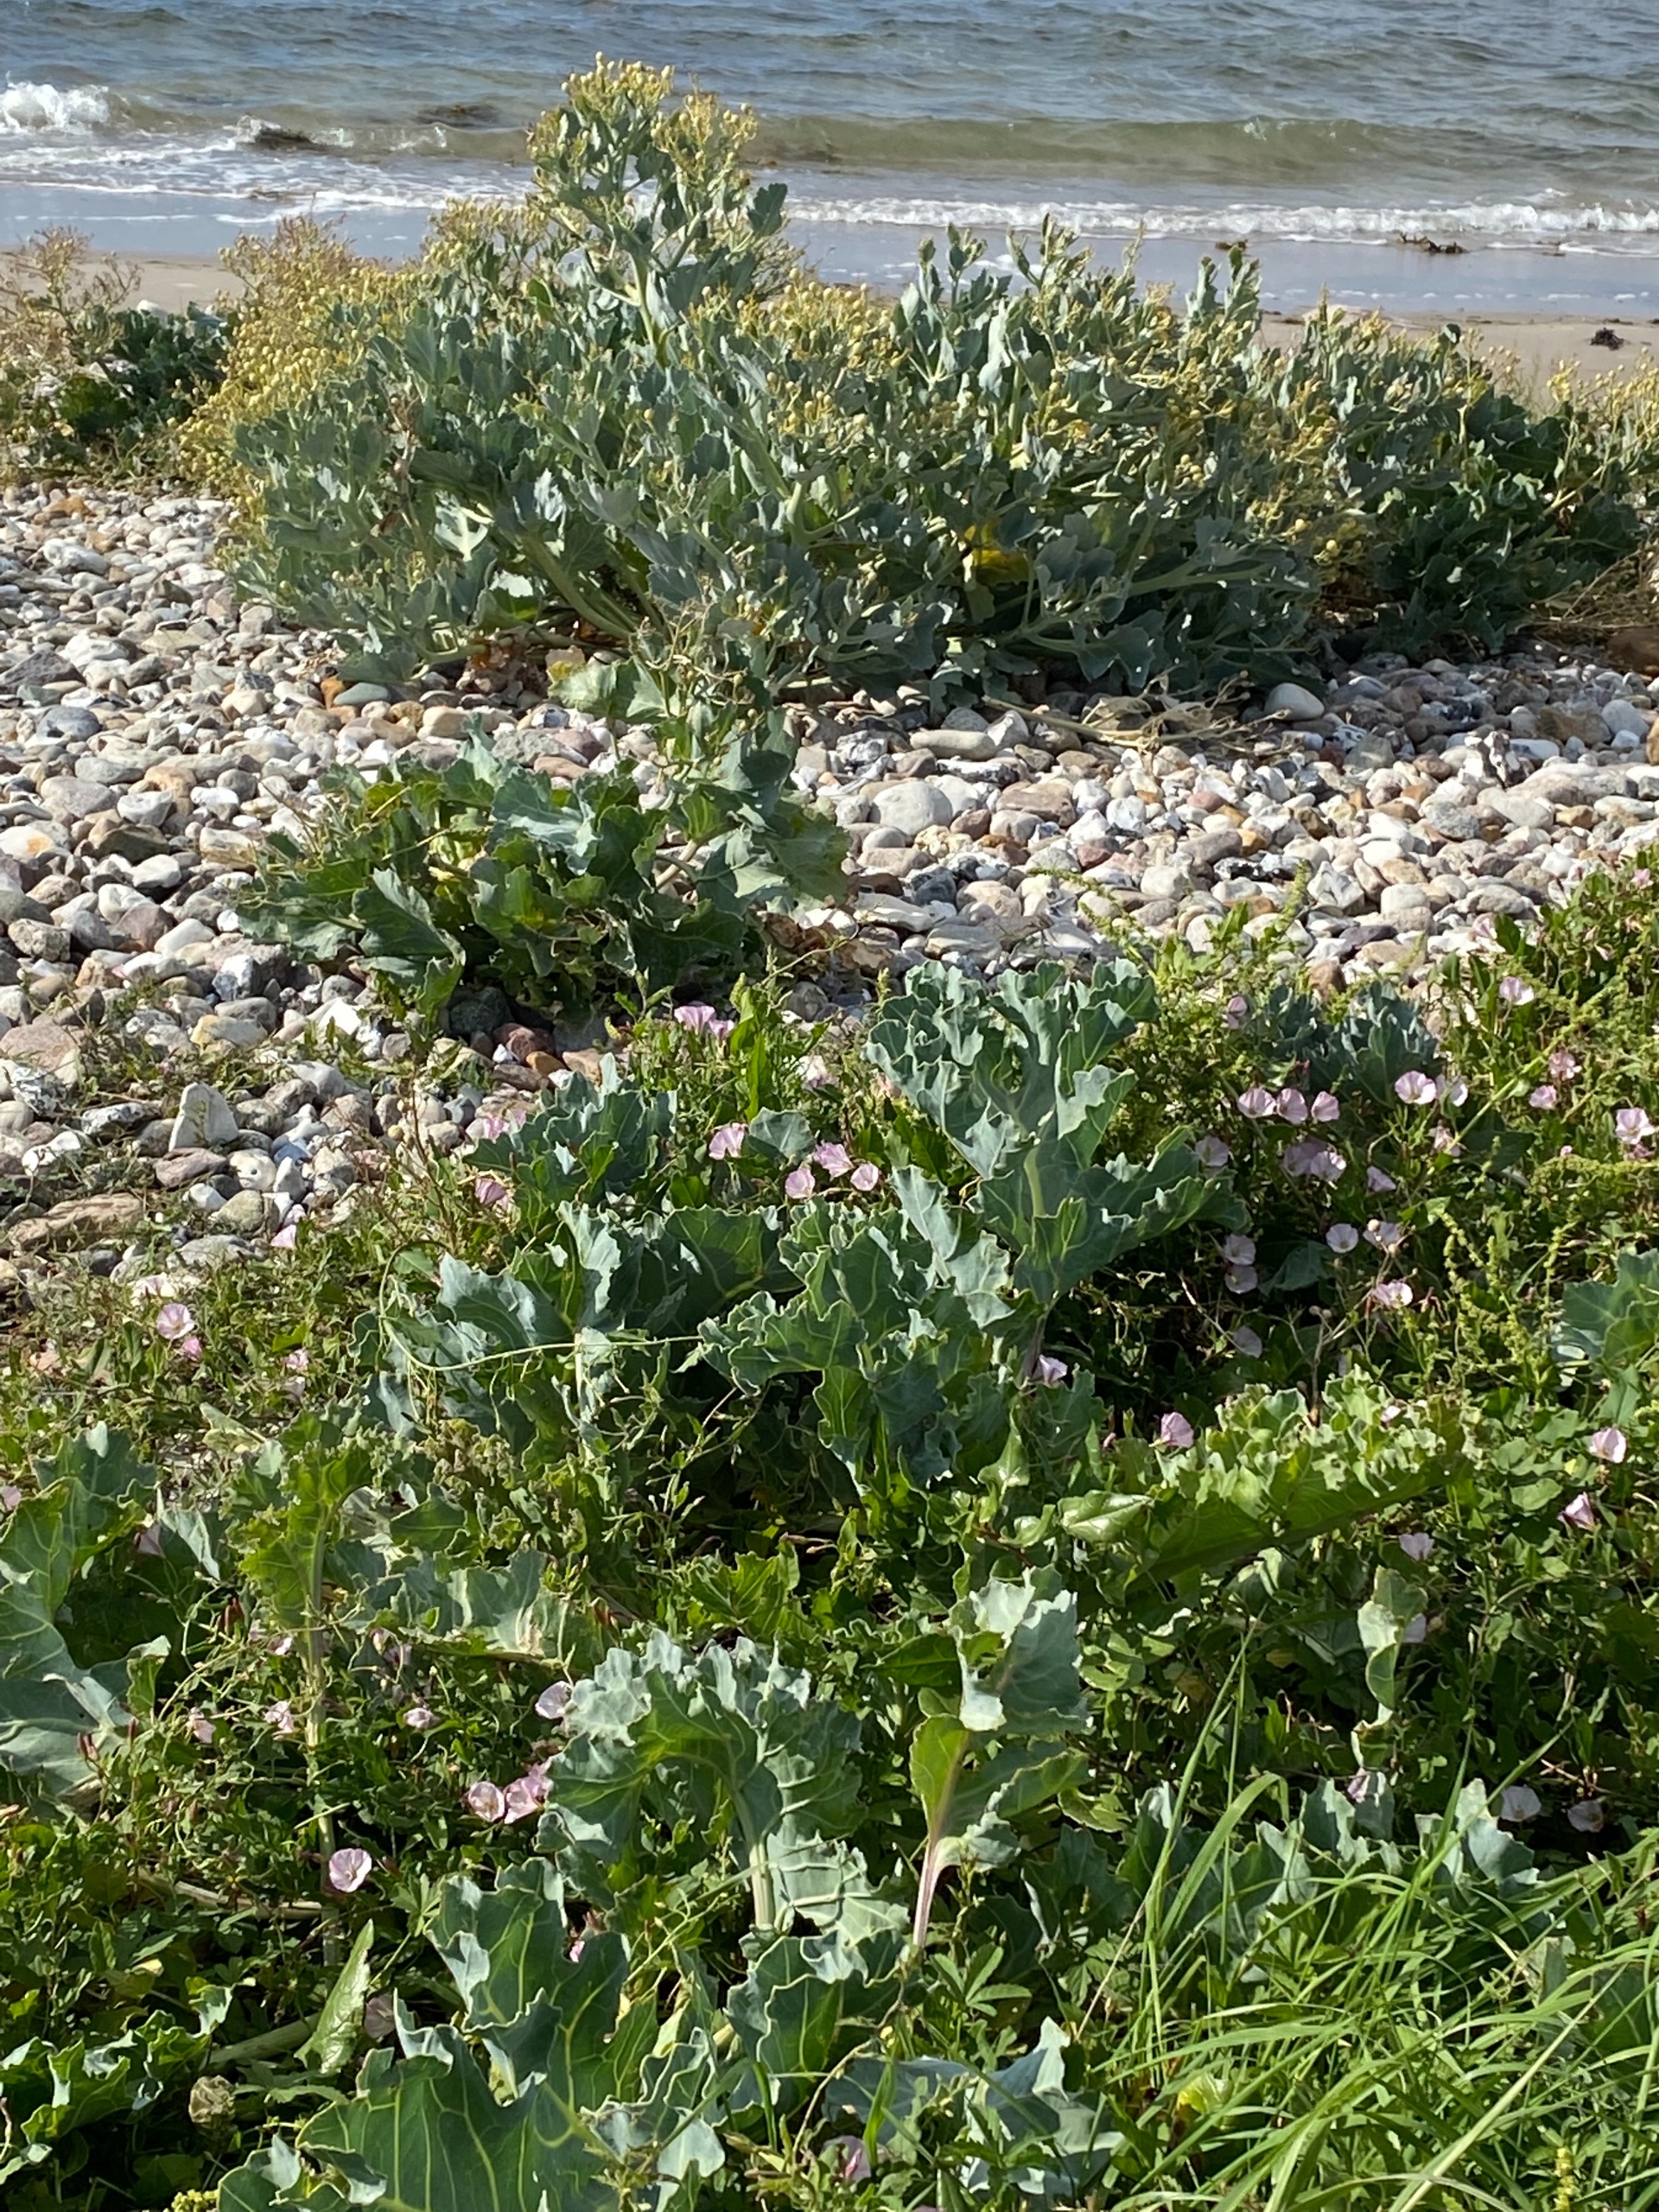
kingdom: Plantae
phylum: Tracheophyta
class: Magnoliopsida
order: Brassicales
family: Brassicaceae
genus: Crambe
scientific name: Crambe maritima
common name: Strandkål
